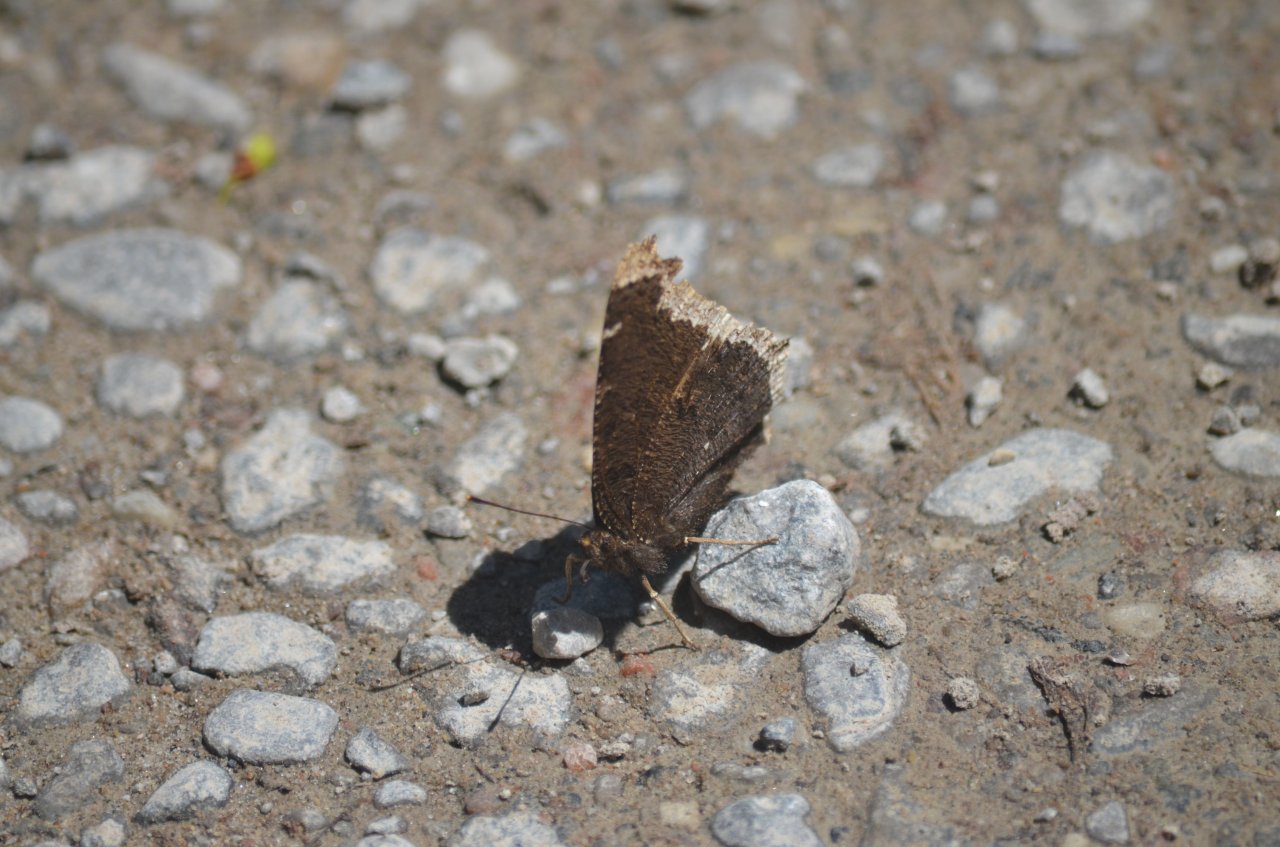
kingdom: Animalia
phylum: Arthropoda
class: Insecta
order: Lepidoptera
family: Nymphalidae
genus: Nymphalis
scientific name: Nymphalis antiopa
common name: Mourning Cloak
